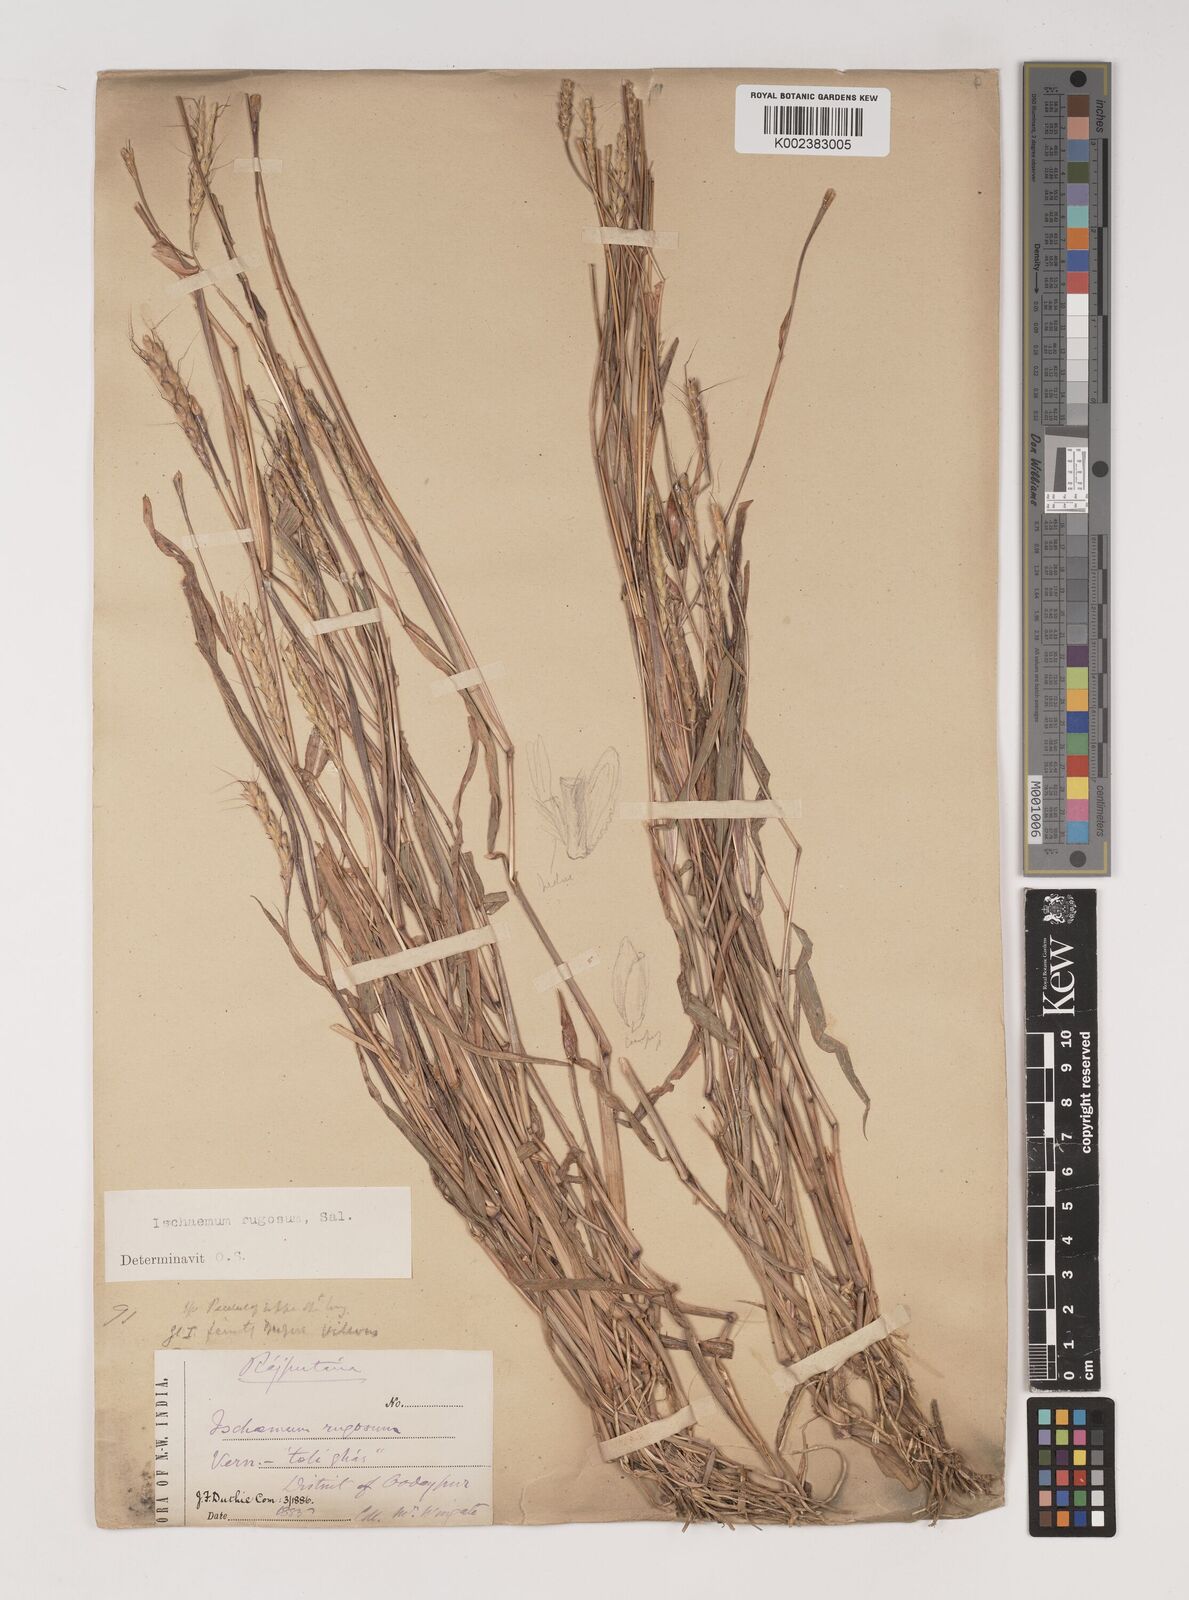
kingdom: Plantae
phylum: Tracheophyta
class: Liliopsida
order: Poales
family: Poaceae
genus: Ischaemum
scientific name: Ischaemum rugosum
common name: Saramatta grass
